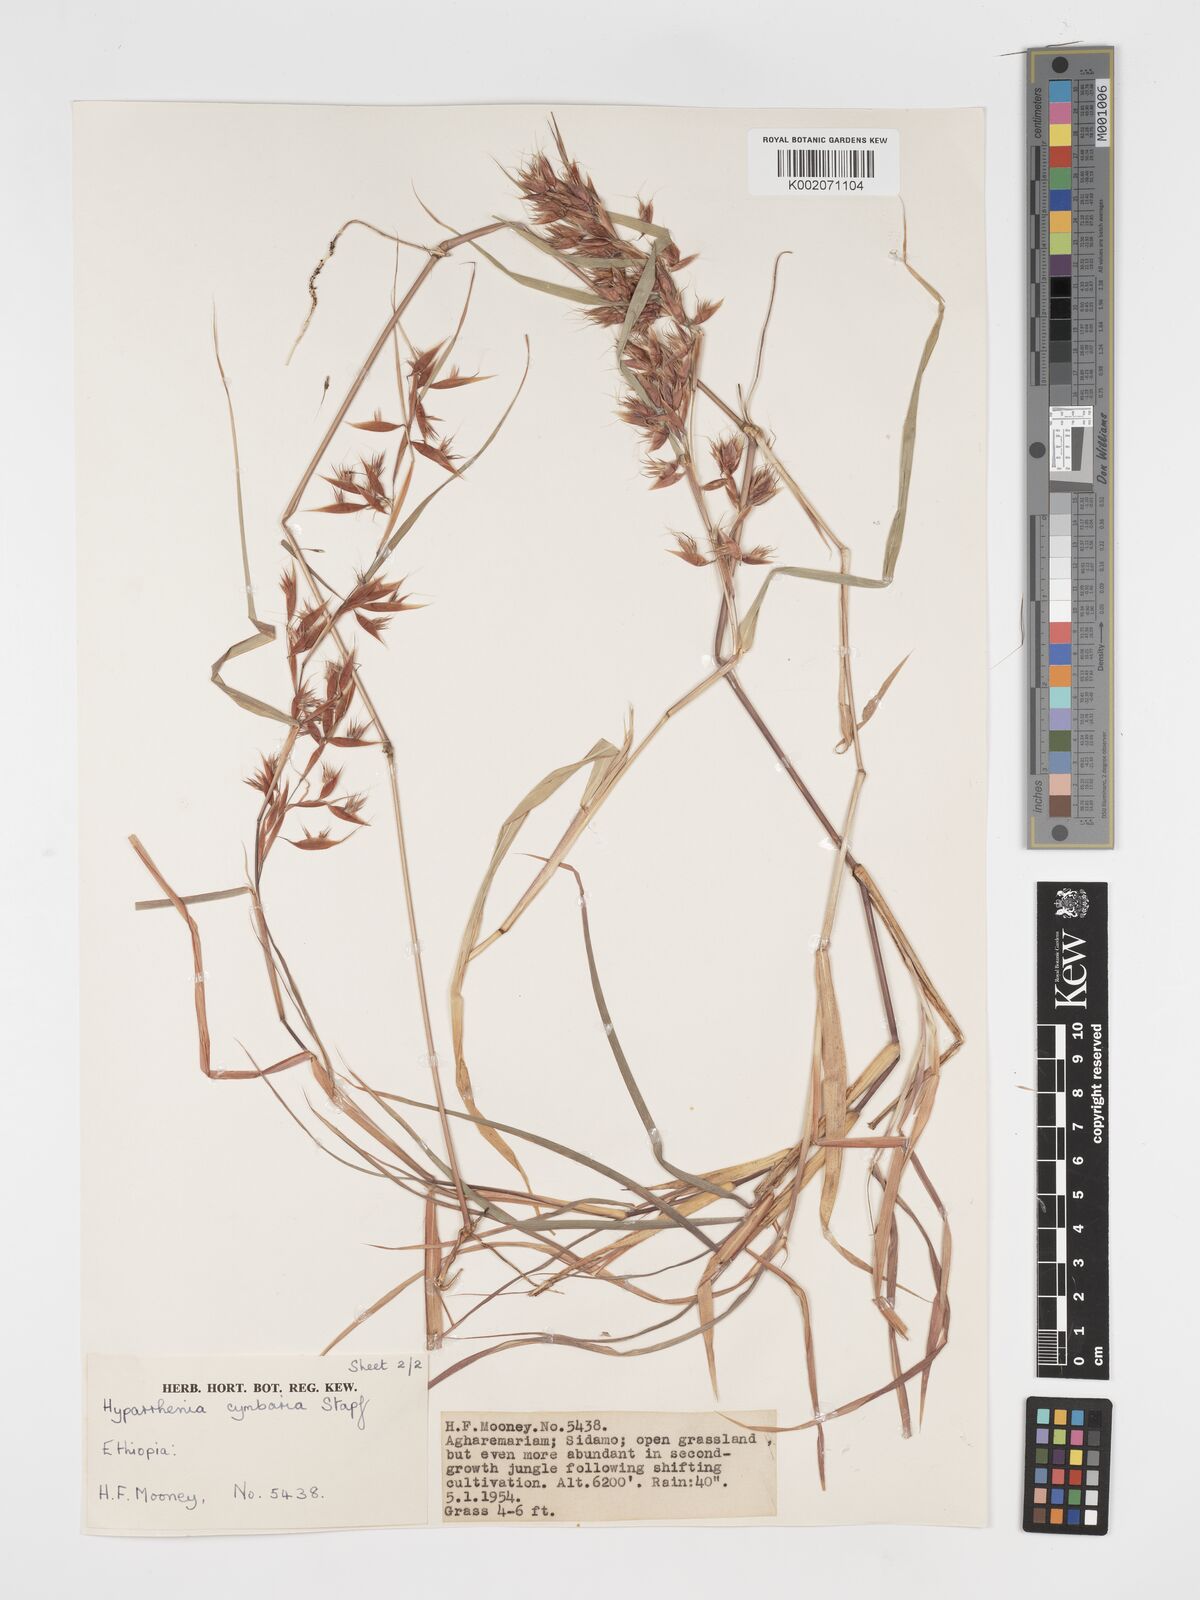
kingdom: Plantae
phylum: Tracheophyta
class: Liliopsida
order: Poales
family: Poaceae
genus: Hyparrhenia
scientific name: Hyparrhenia cymbaria
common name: Boat thatching grass
